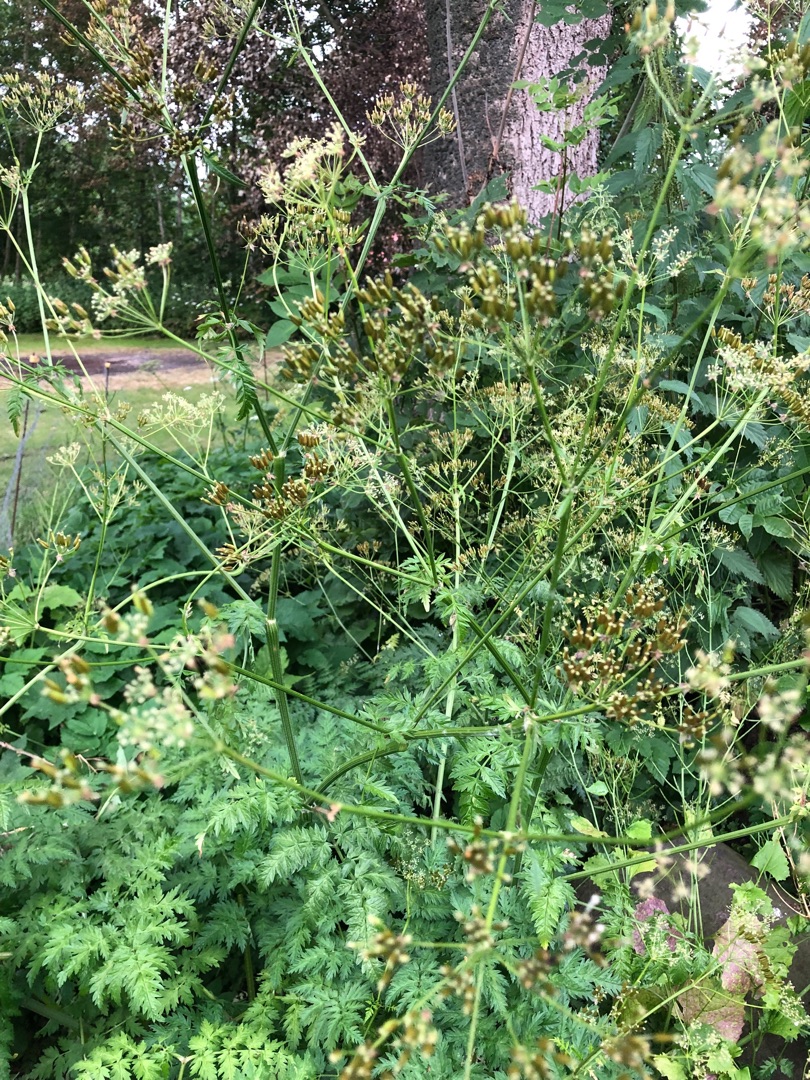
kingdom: Plantae
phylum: Tracheophyta
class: Magnoliopsida
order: Apiales
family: Apiaceae
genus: Anthriscus
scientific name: Anthriscus sylvestris
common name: Vild kørvel
